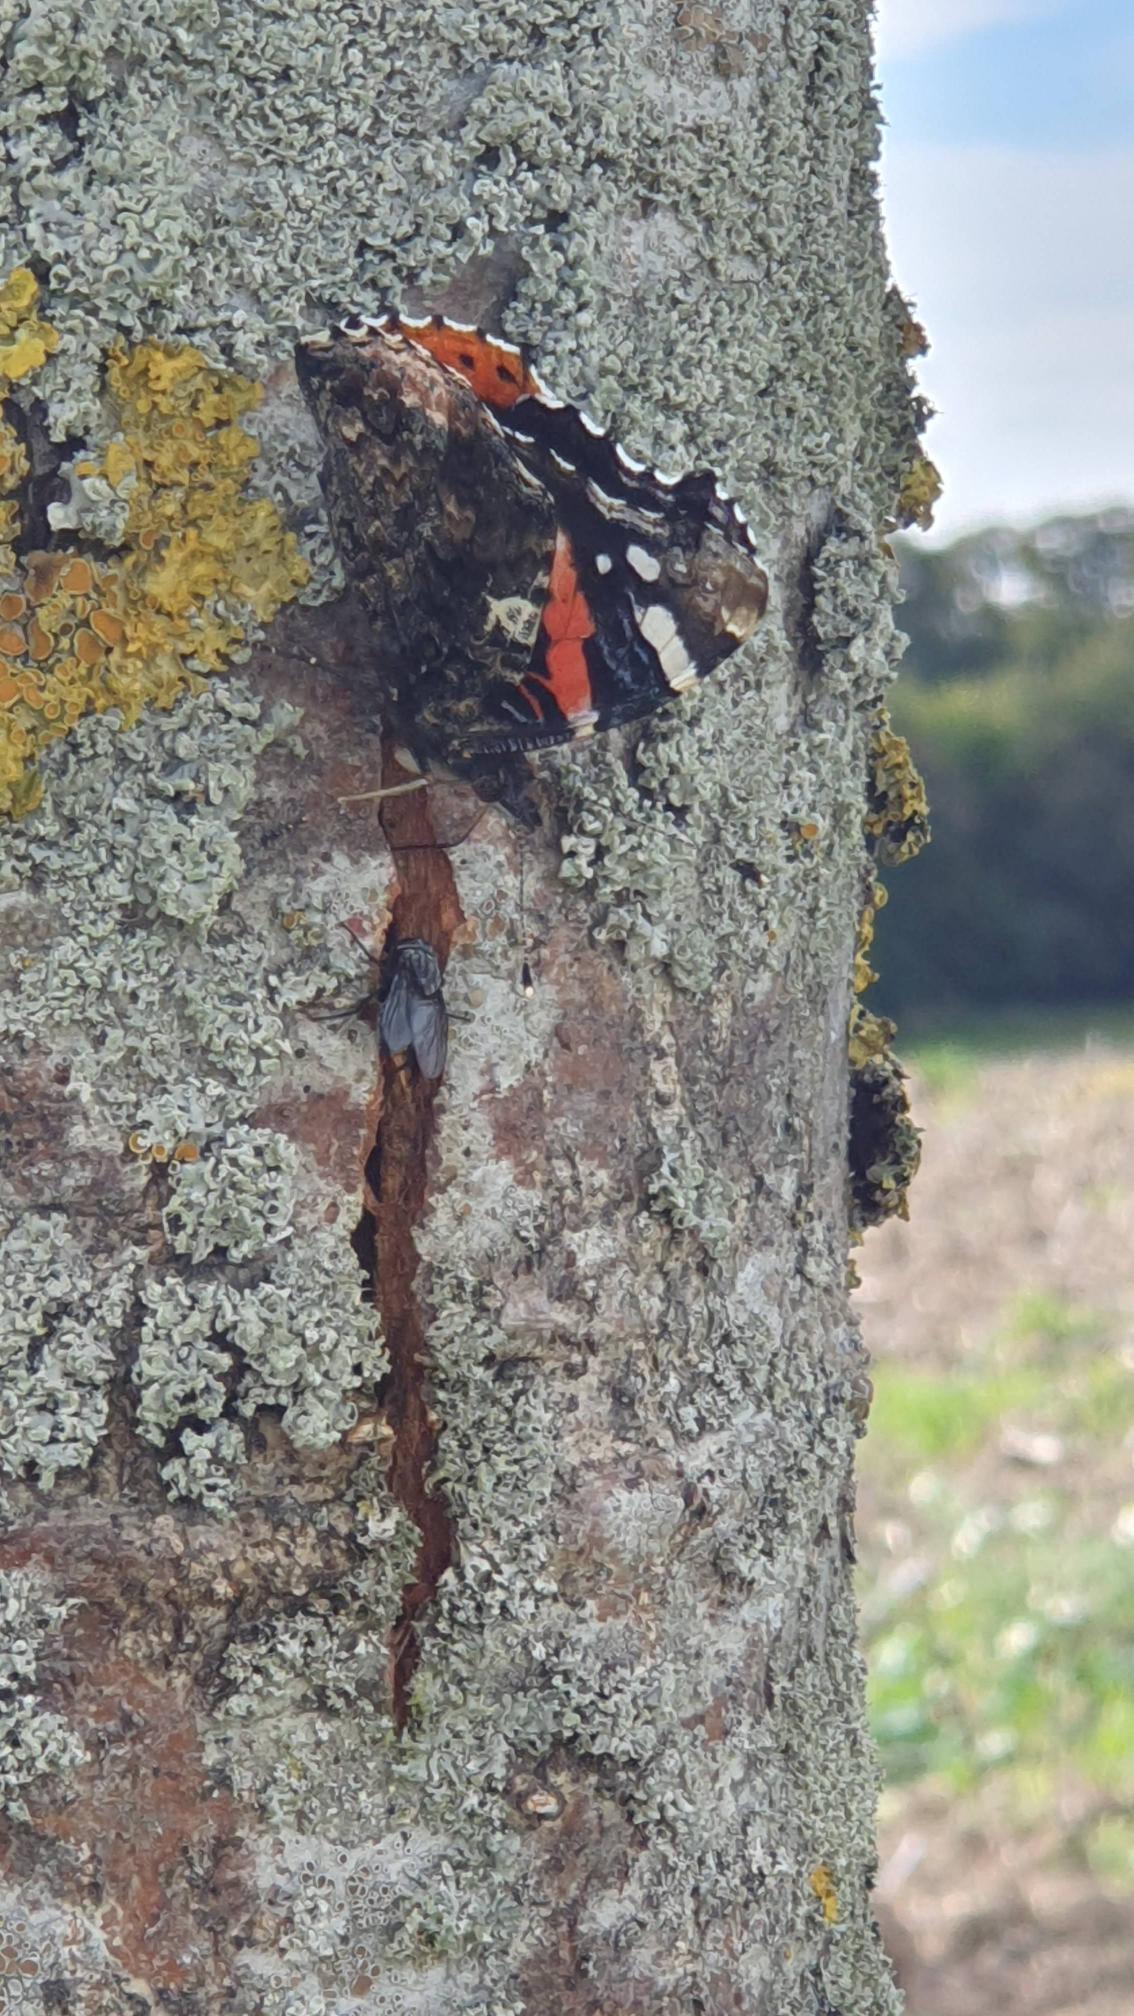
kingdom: Animalia
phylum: Arthropoda
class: Insecta
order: Lepidoptera
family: Nymphalidae
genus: Vanessa
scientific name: Vanessa atalanta
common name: Admiral
